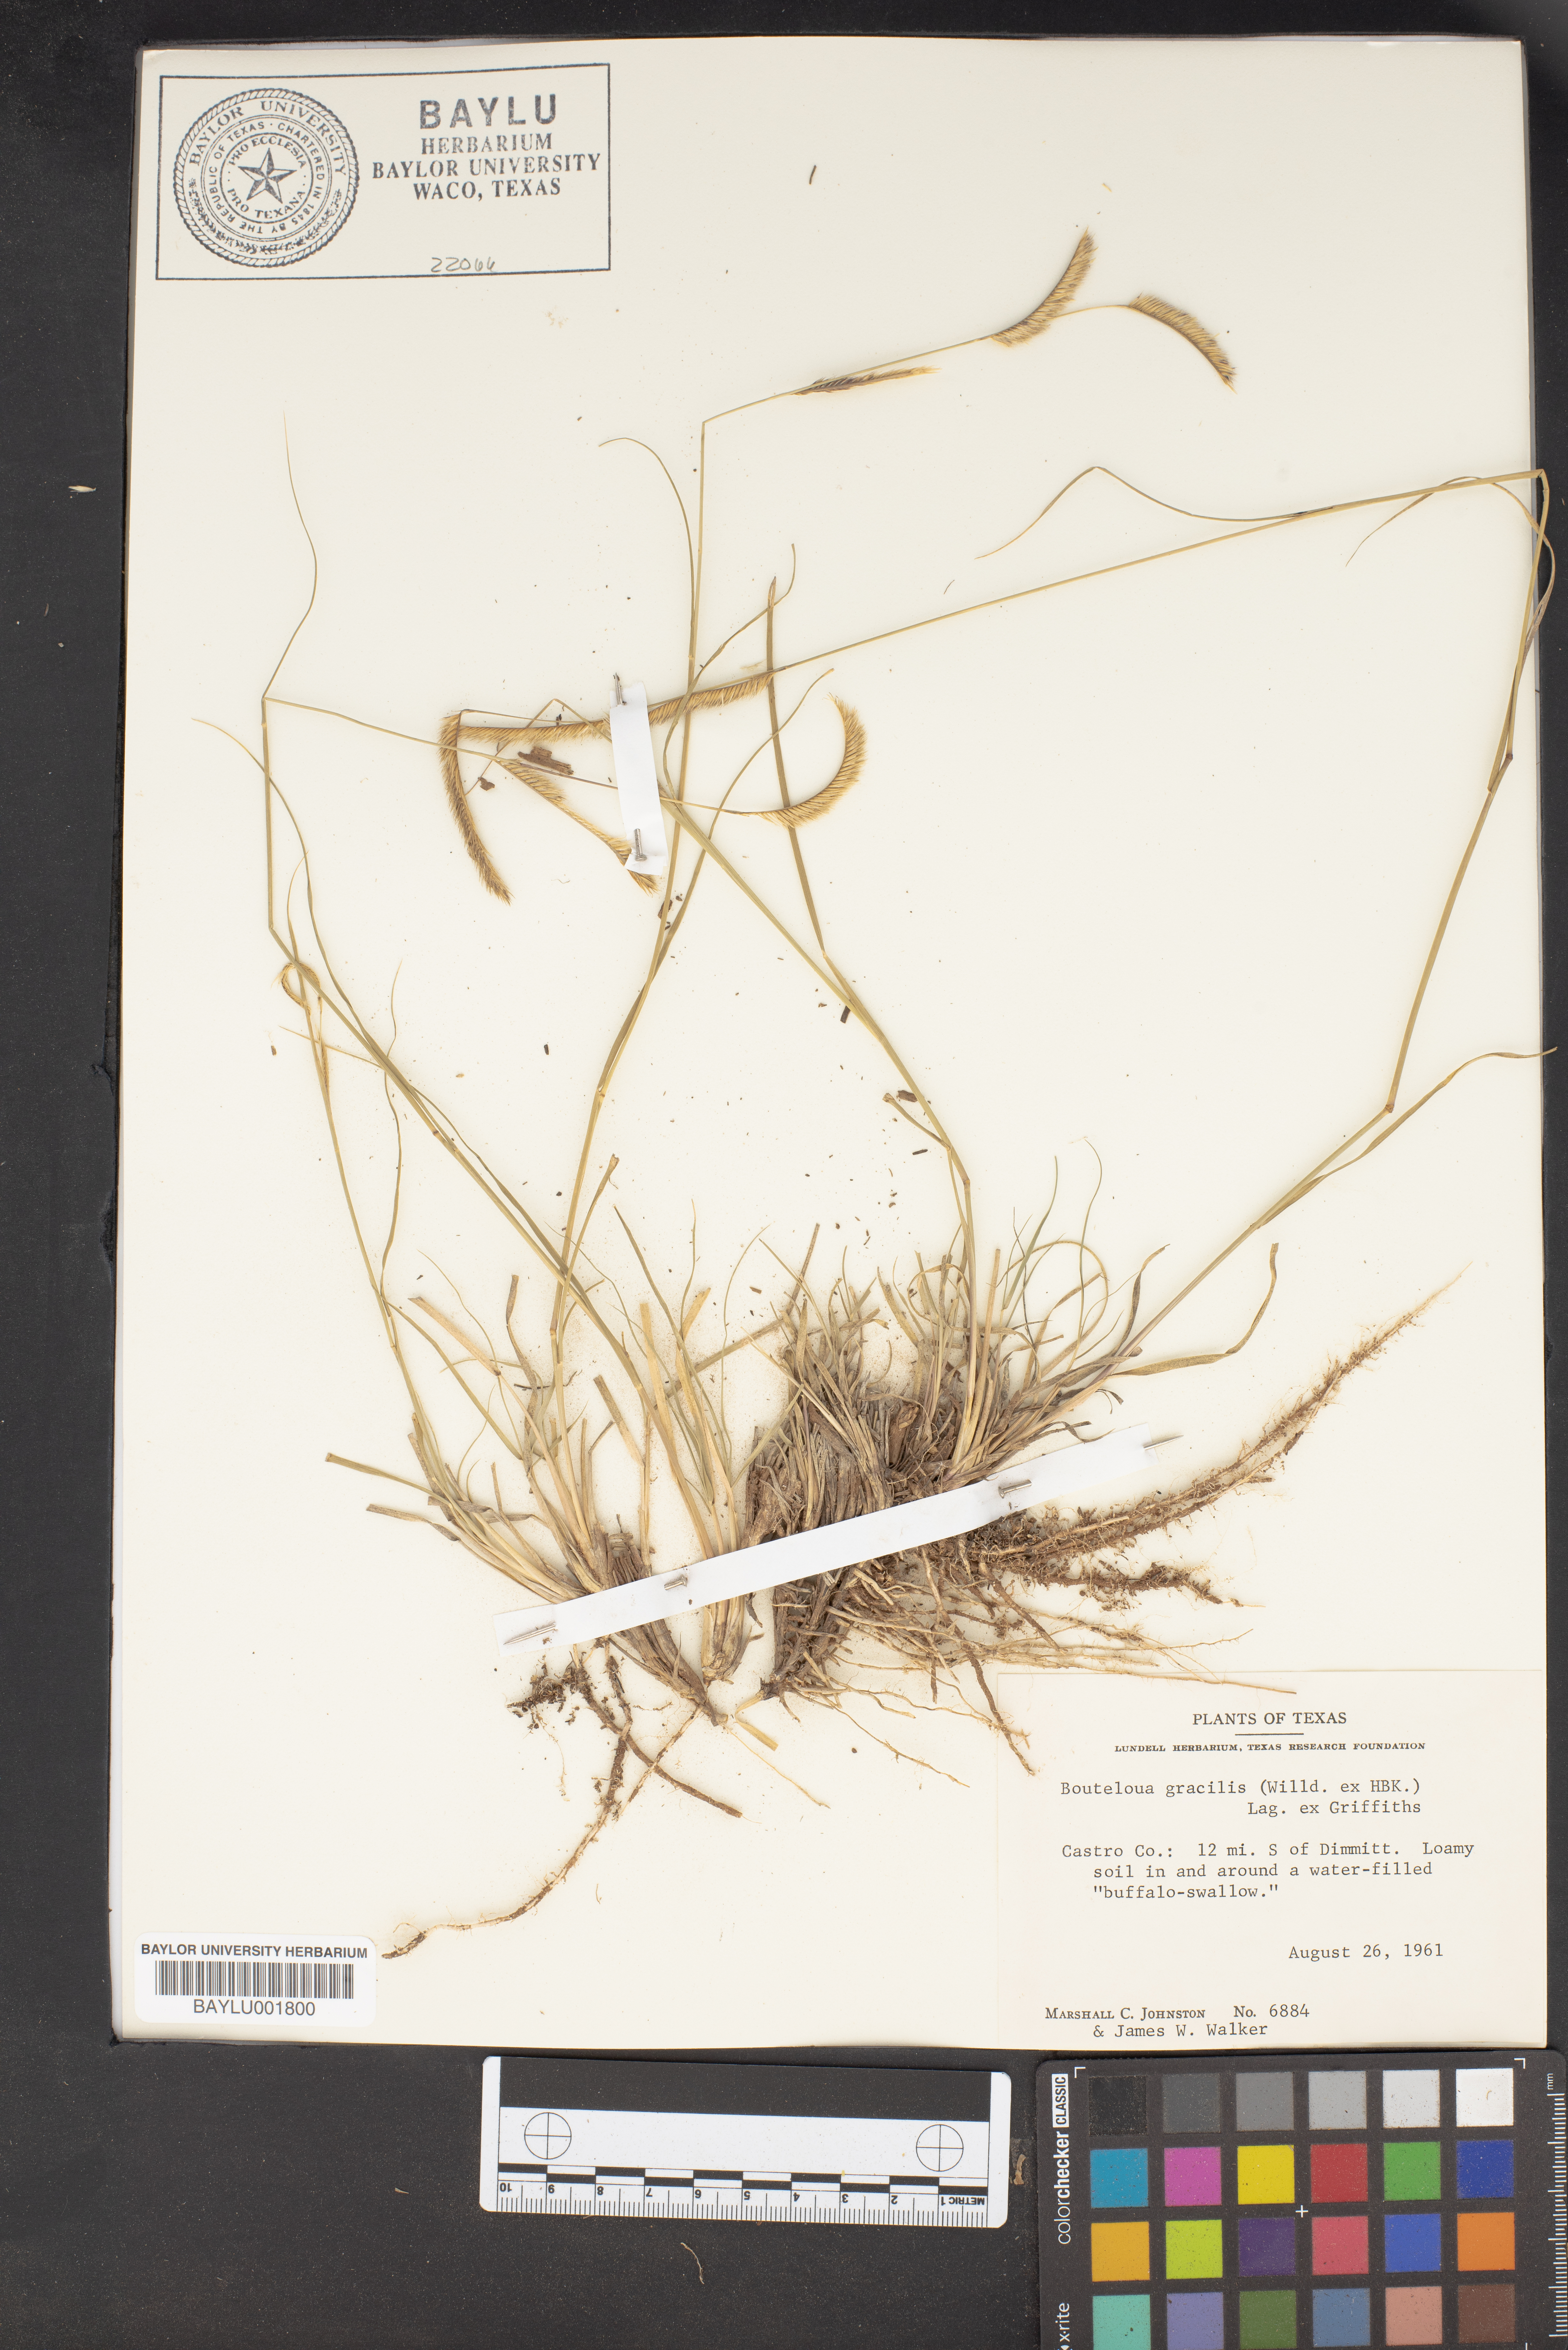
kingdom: Plantae
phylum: Tracheophyta
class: Liliopsida
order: Poales
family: Poaceae
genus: Bouteloua
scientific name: Bouteloua gracilis
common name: Blue grama
